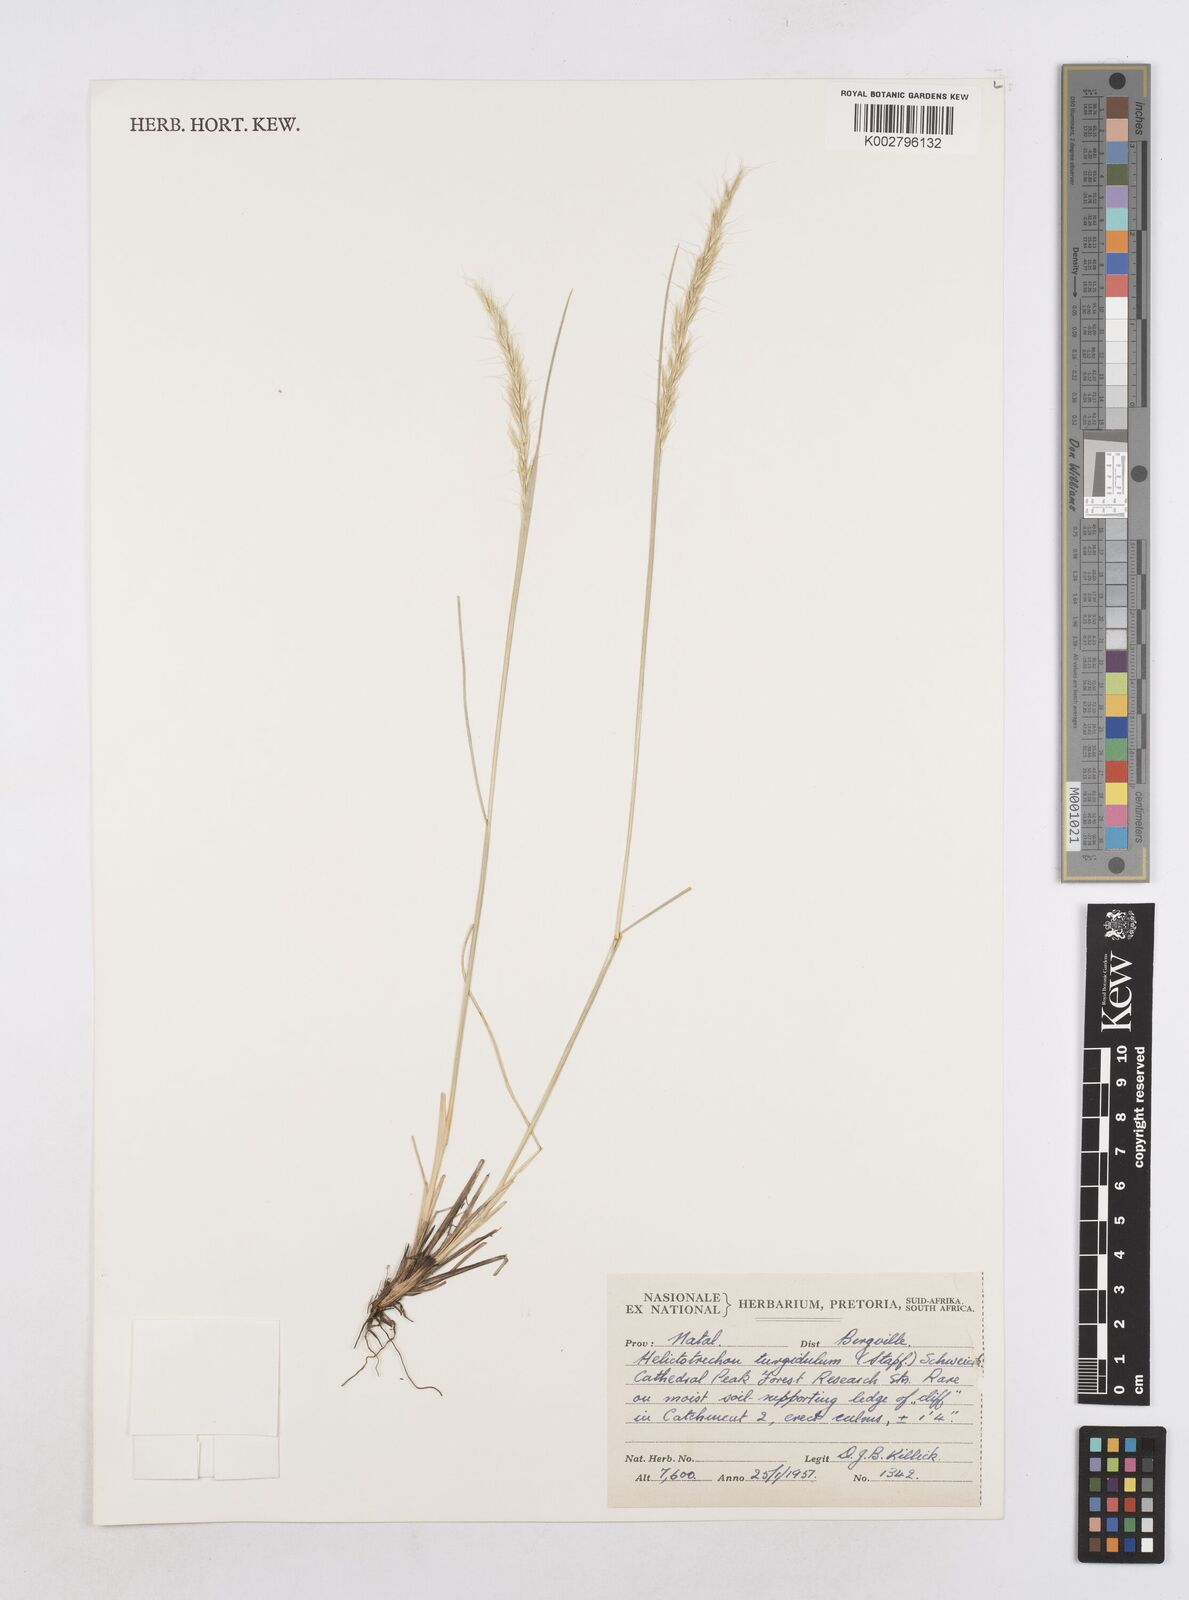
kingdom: Plantae
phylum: Tracheophyta
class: Liliopsida
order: Poales
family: Poaceae
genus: Trisetopsis
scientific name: Trisetopsis imberbis
